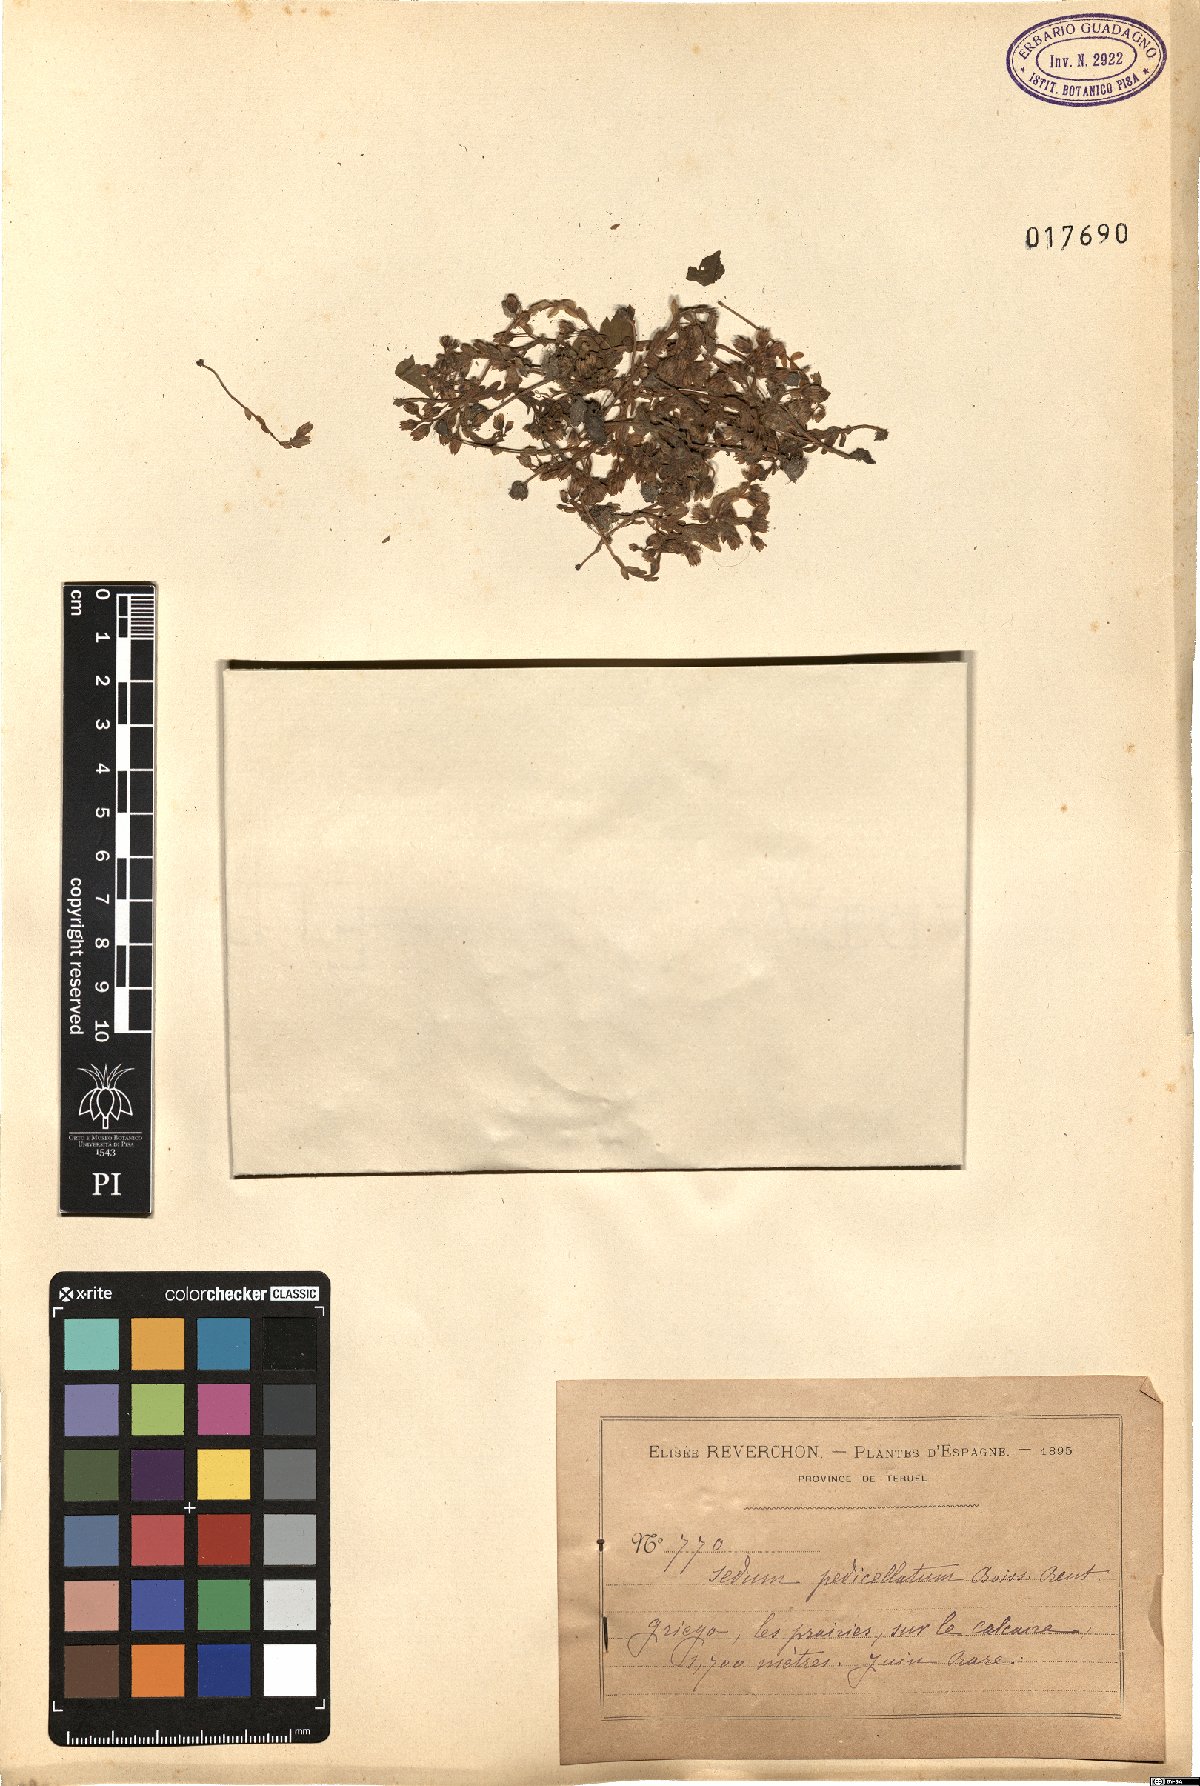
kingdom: Plantae
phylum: Tracheophyta
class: Magnoliopsida
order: Saxifragales
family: Crassulaceae
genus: Sedum
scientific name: Sedum pedicellatum
